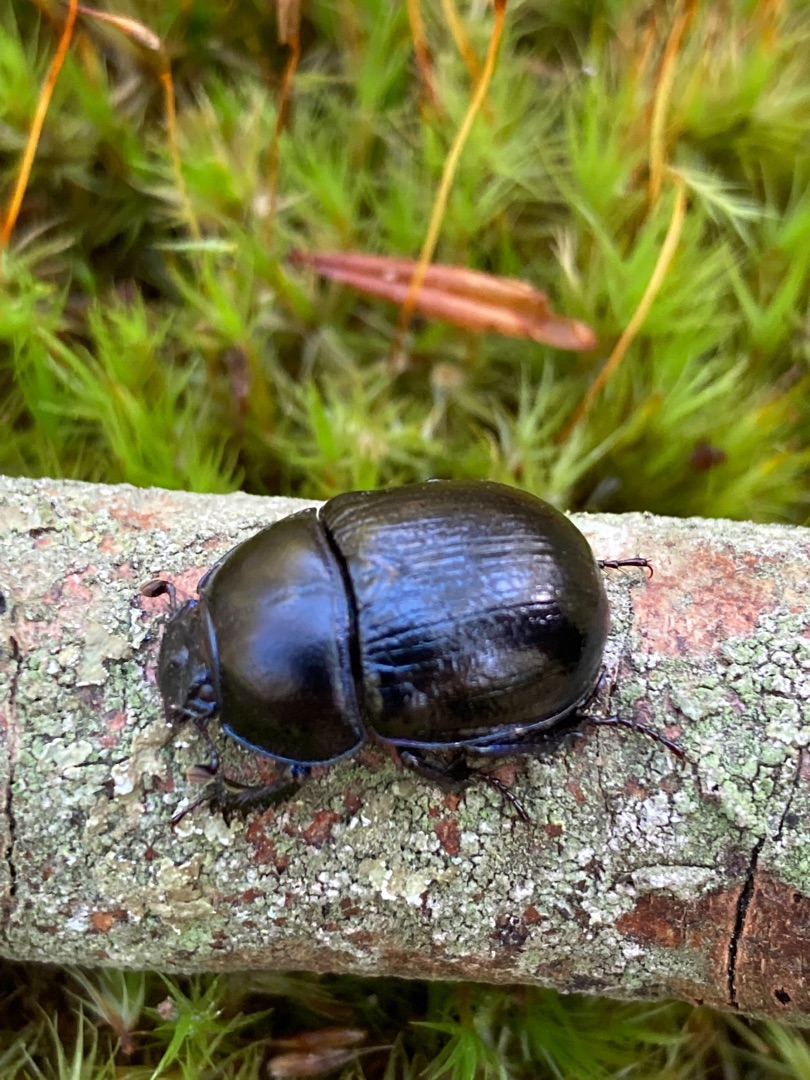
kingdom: Animalia
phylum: Arthropoda
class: Insecta
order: Coleoptera
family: Geotrupidae
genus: Anoplotrupes
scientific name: Anoplotrupes stercorosus
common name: Skovskarnbasse
